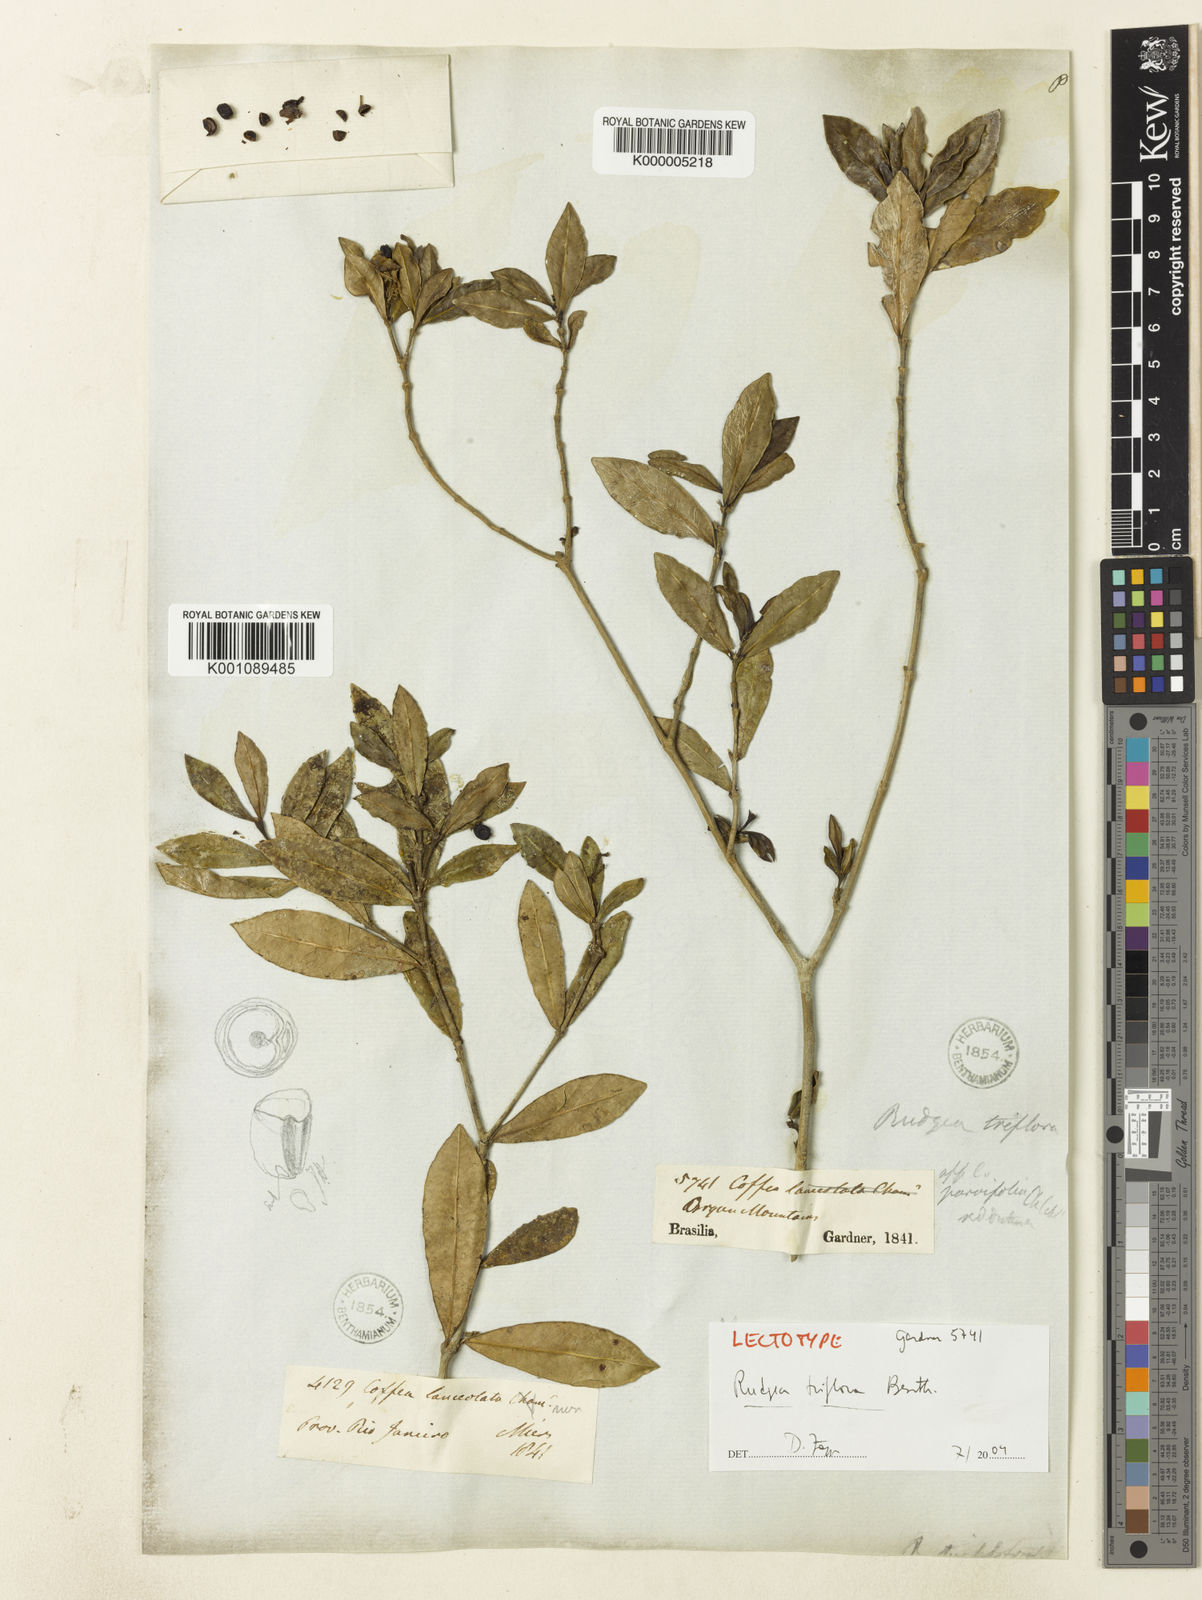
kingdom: Plantae
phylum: Tracheophyta
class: Magnoliopsida
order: Gentianales
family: Rubiaceae
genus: Rudgea
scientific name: Rudgea triflora
